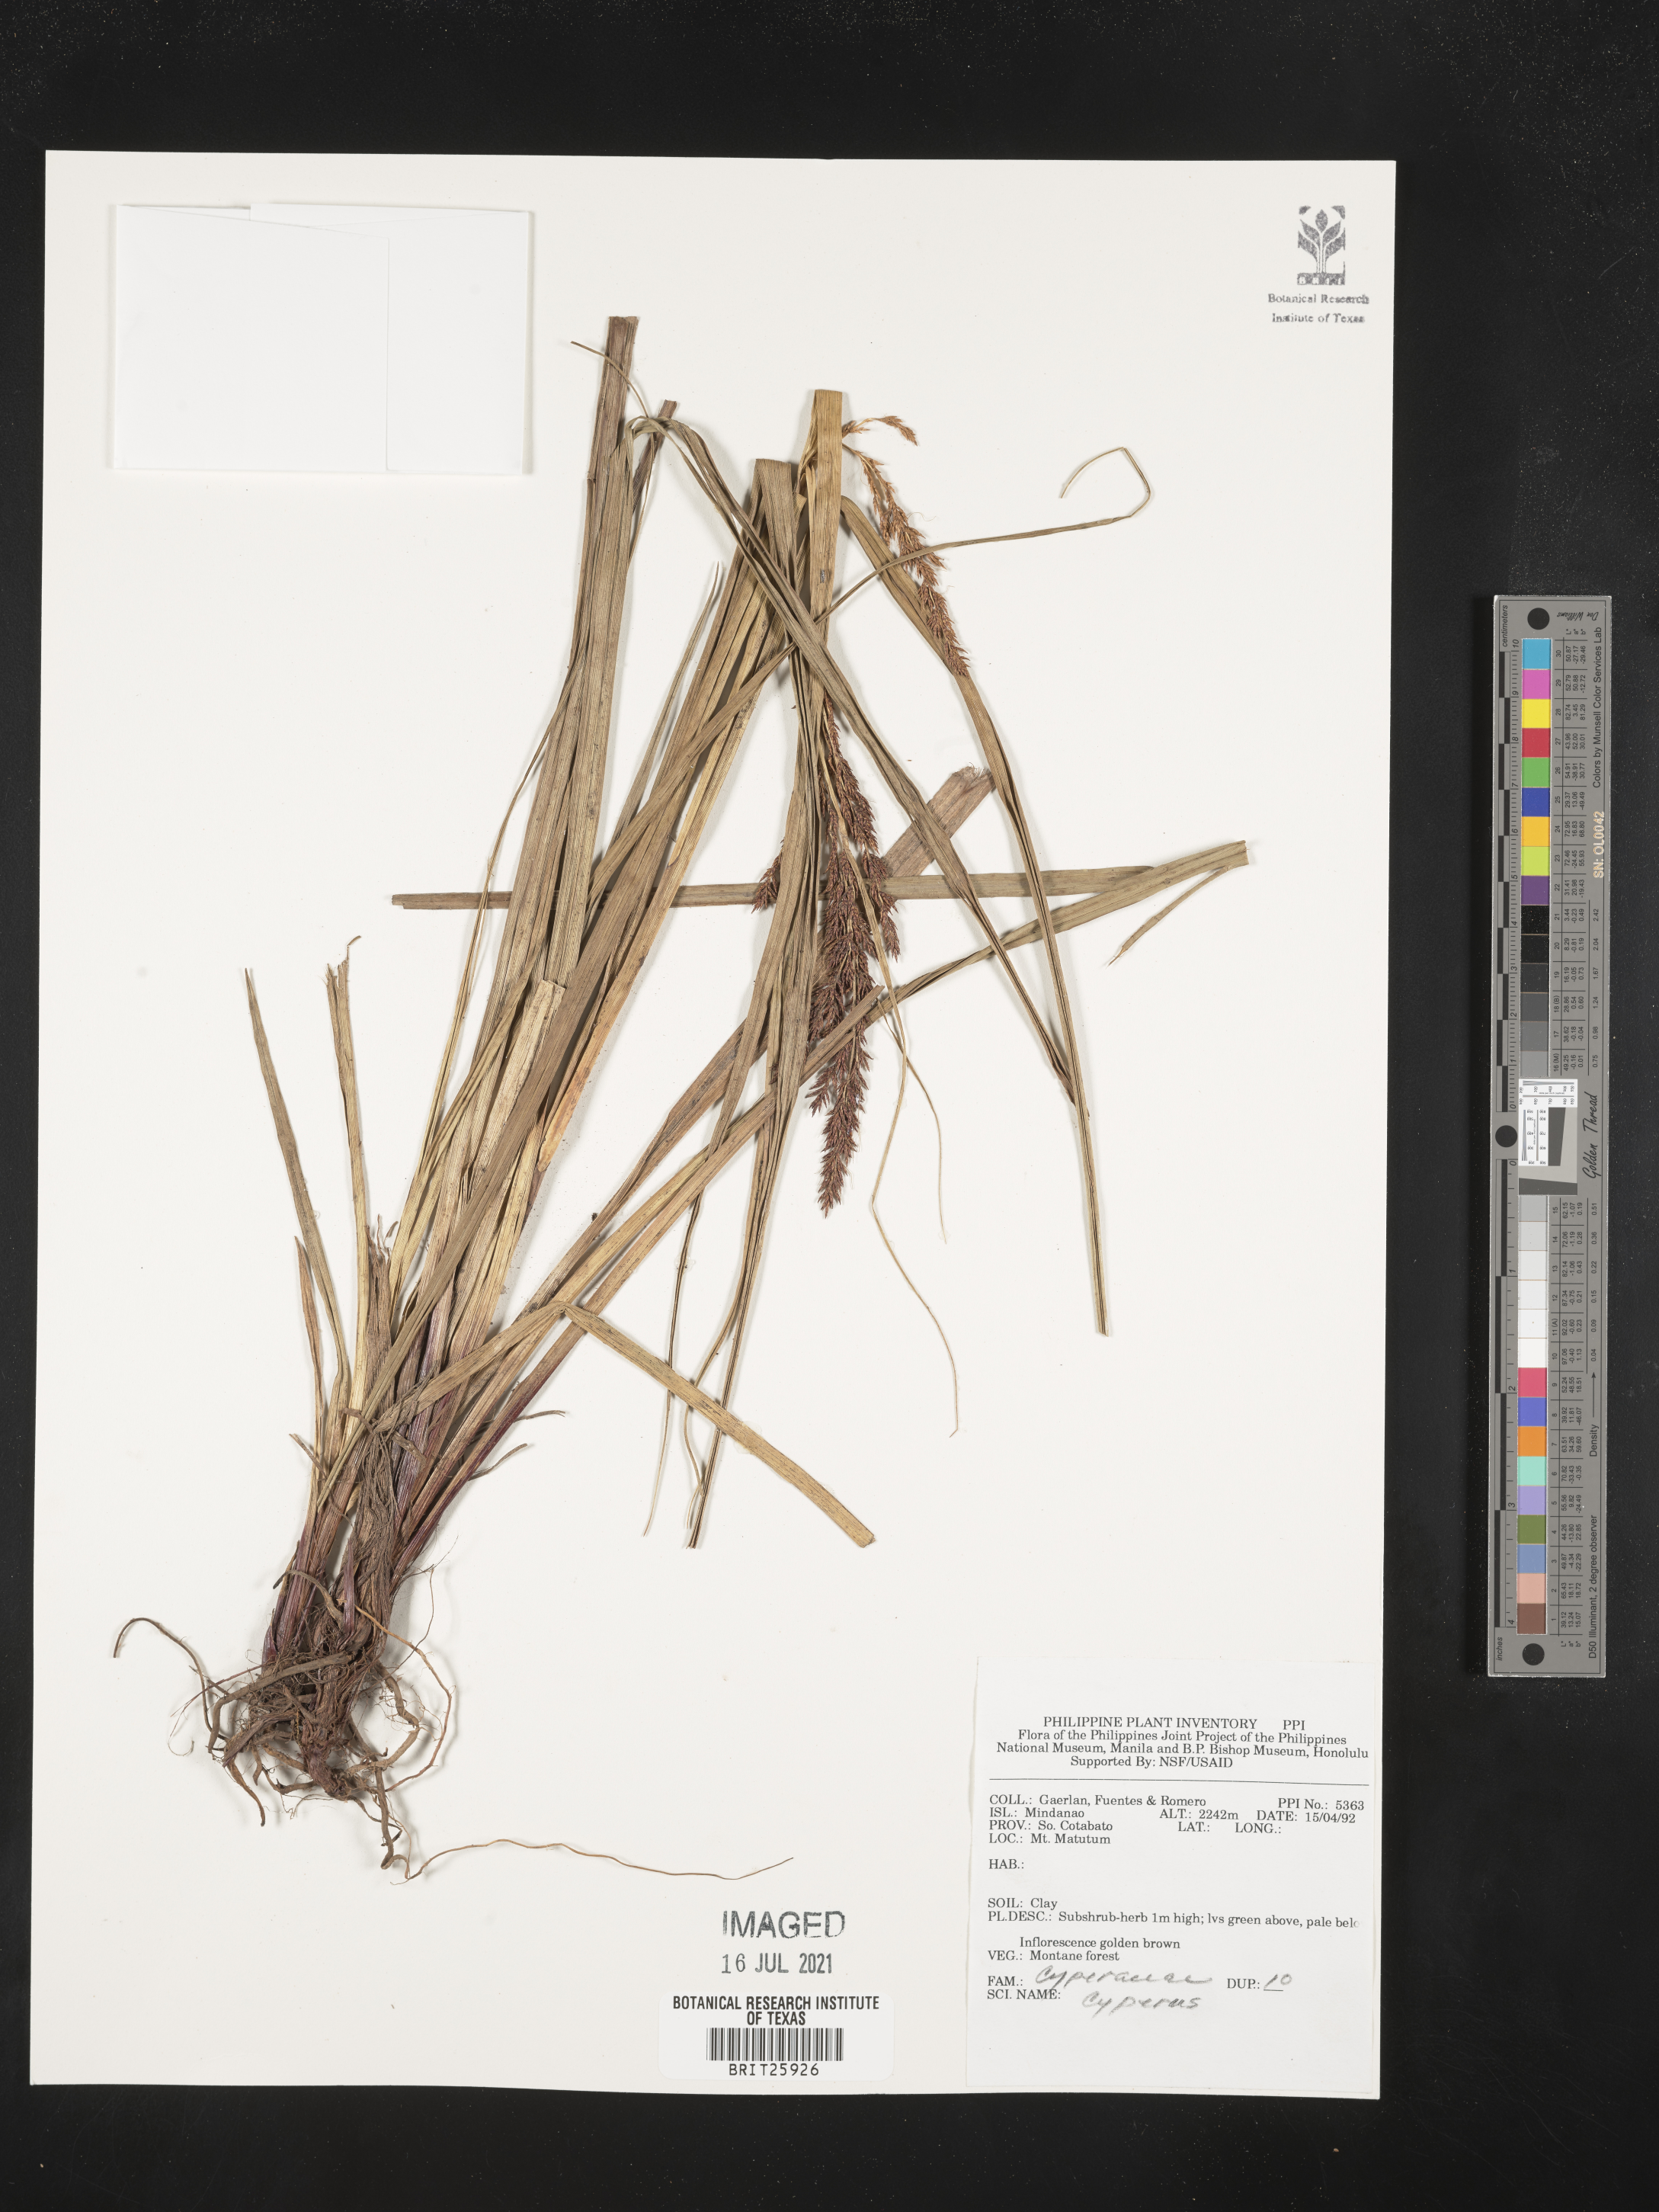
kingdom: Plantae
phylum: Tracheophyta
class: Liliopsida
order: Poales
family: Cyperaceae
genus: Cyperus
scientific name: Cyperus
